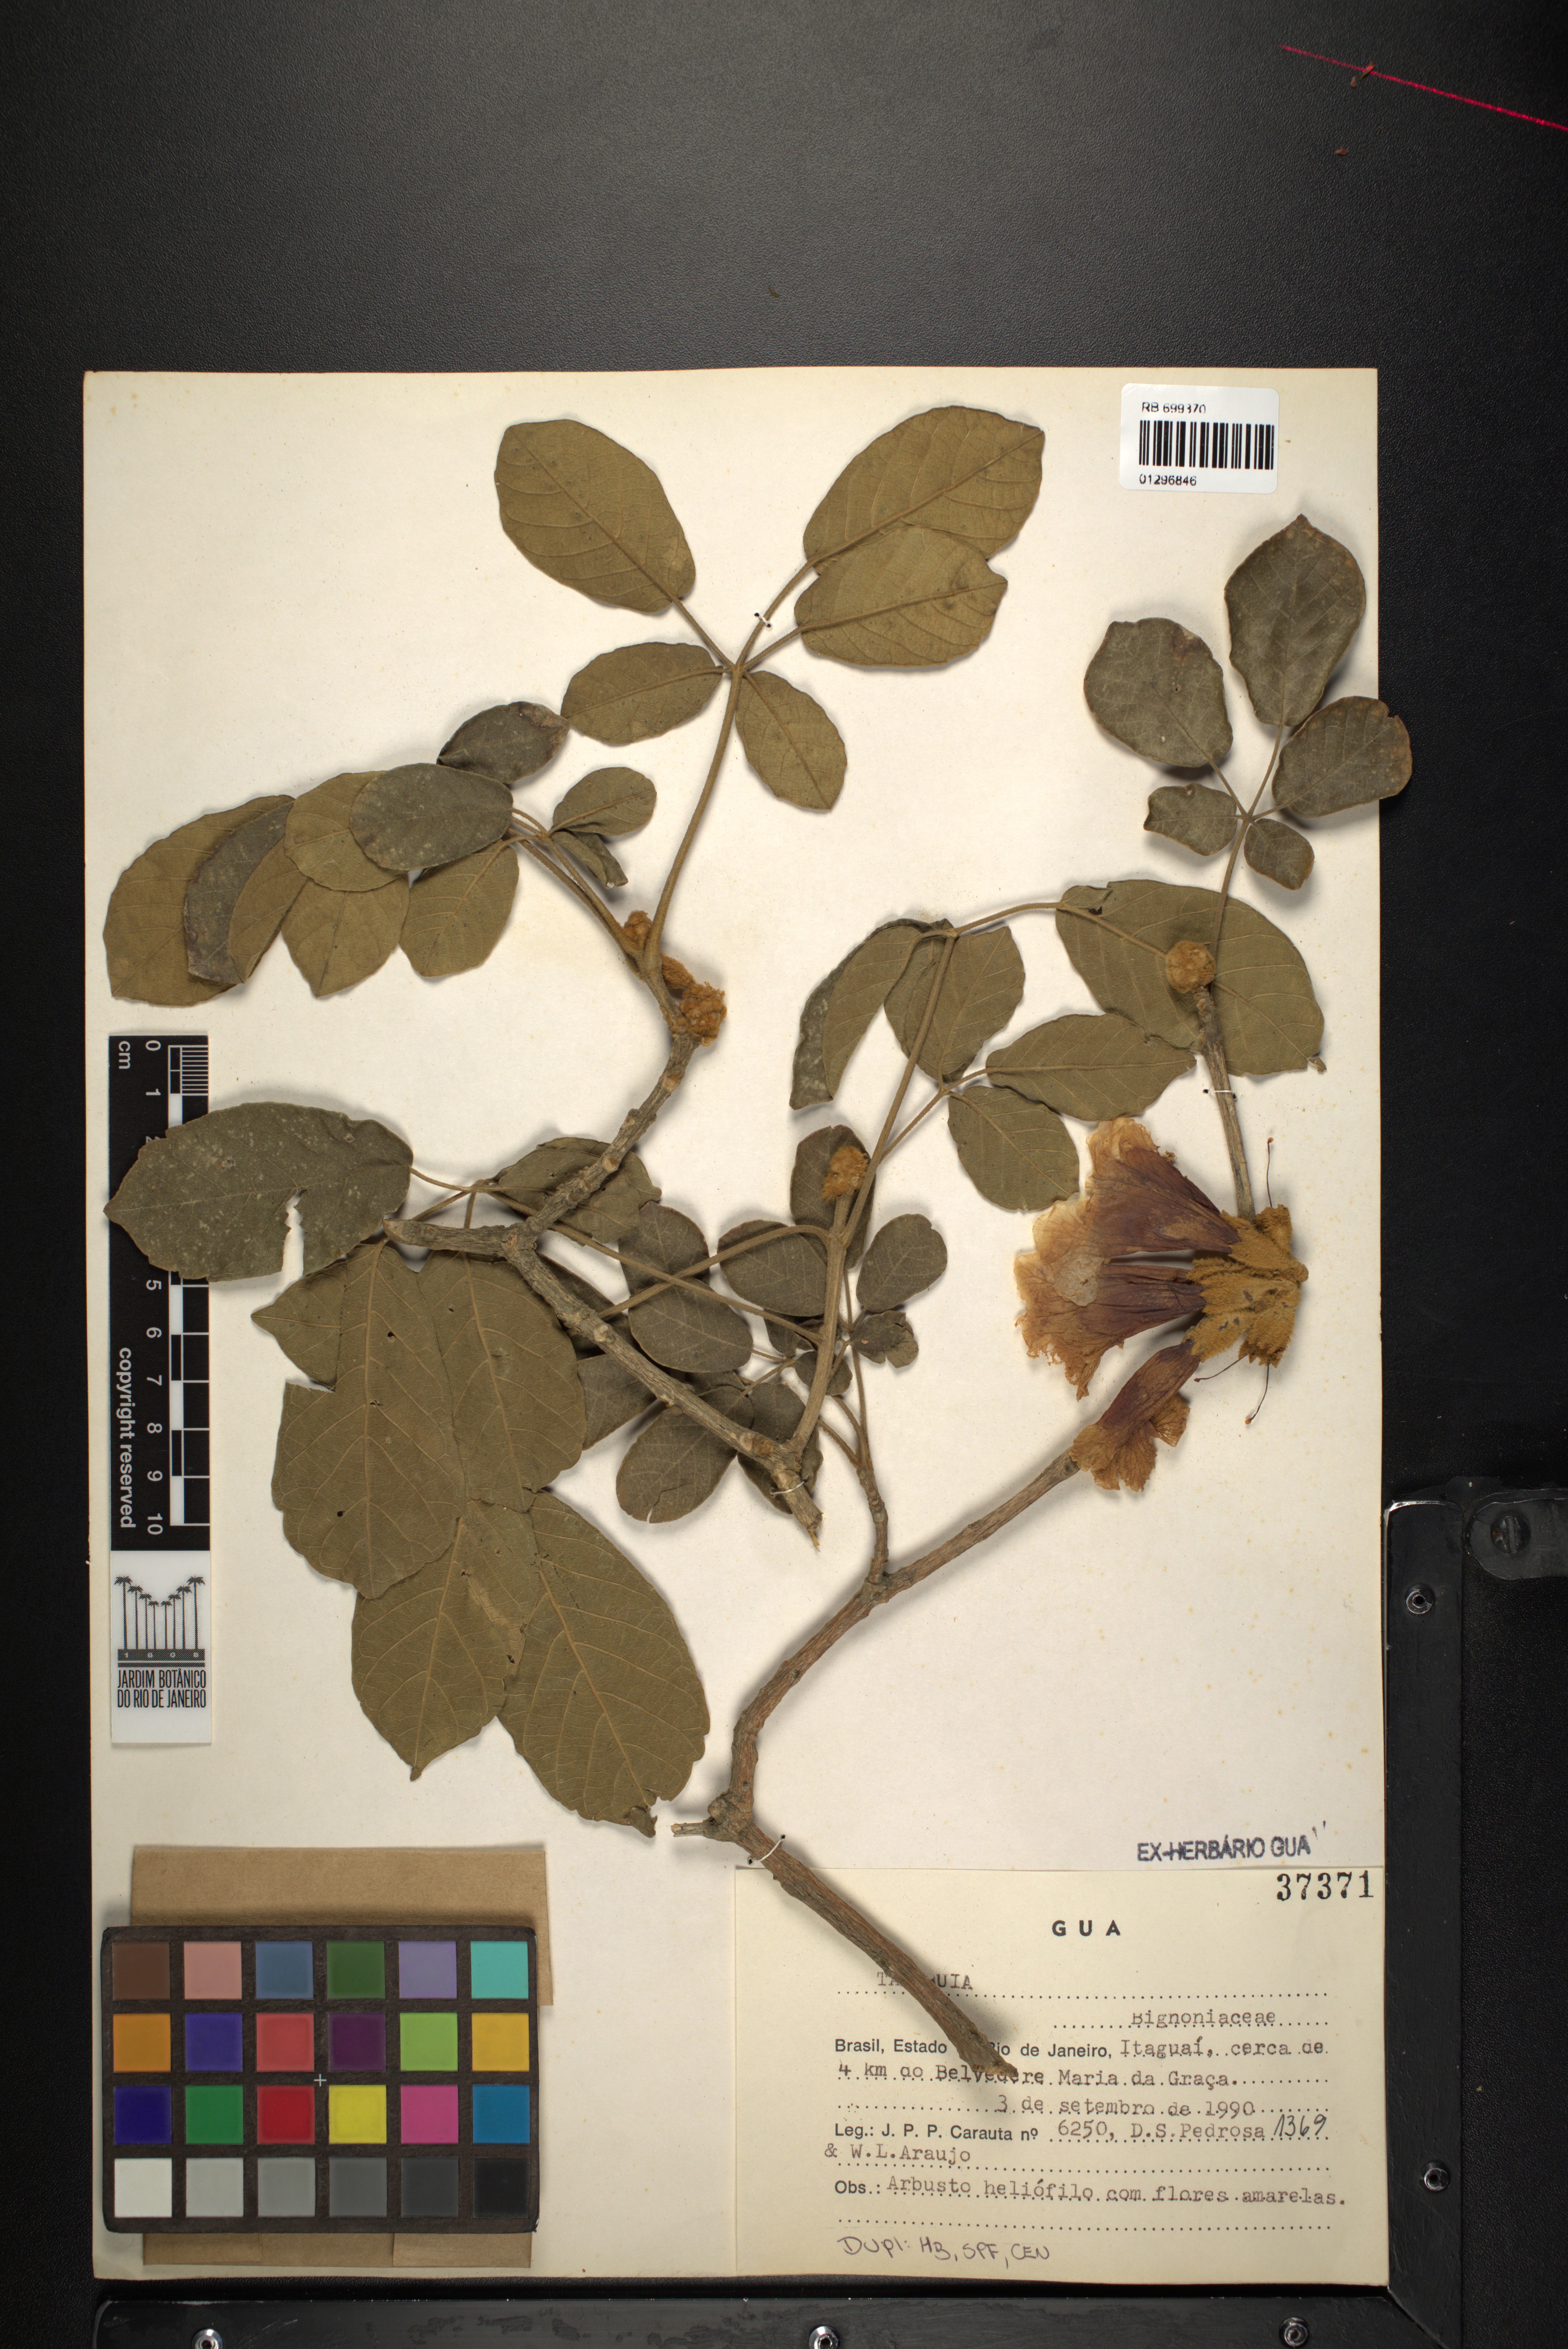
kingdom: Plantae
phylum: Tracheophyta
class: Magnoliopsida
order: Lamiales
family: Bignoniaceae
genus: Tabebuia
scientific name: Tabebuia
